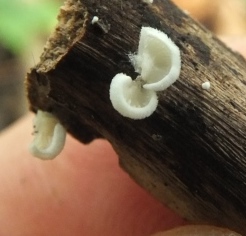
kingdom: Fungi
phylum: Basidiomycota
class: Agaricomycetes
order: Agaricales
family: Crepidotaceae
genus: Crepidotus
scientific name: Crepidotus cesatii
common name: almindelig muslingesvamp
